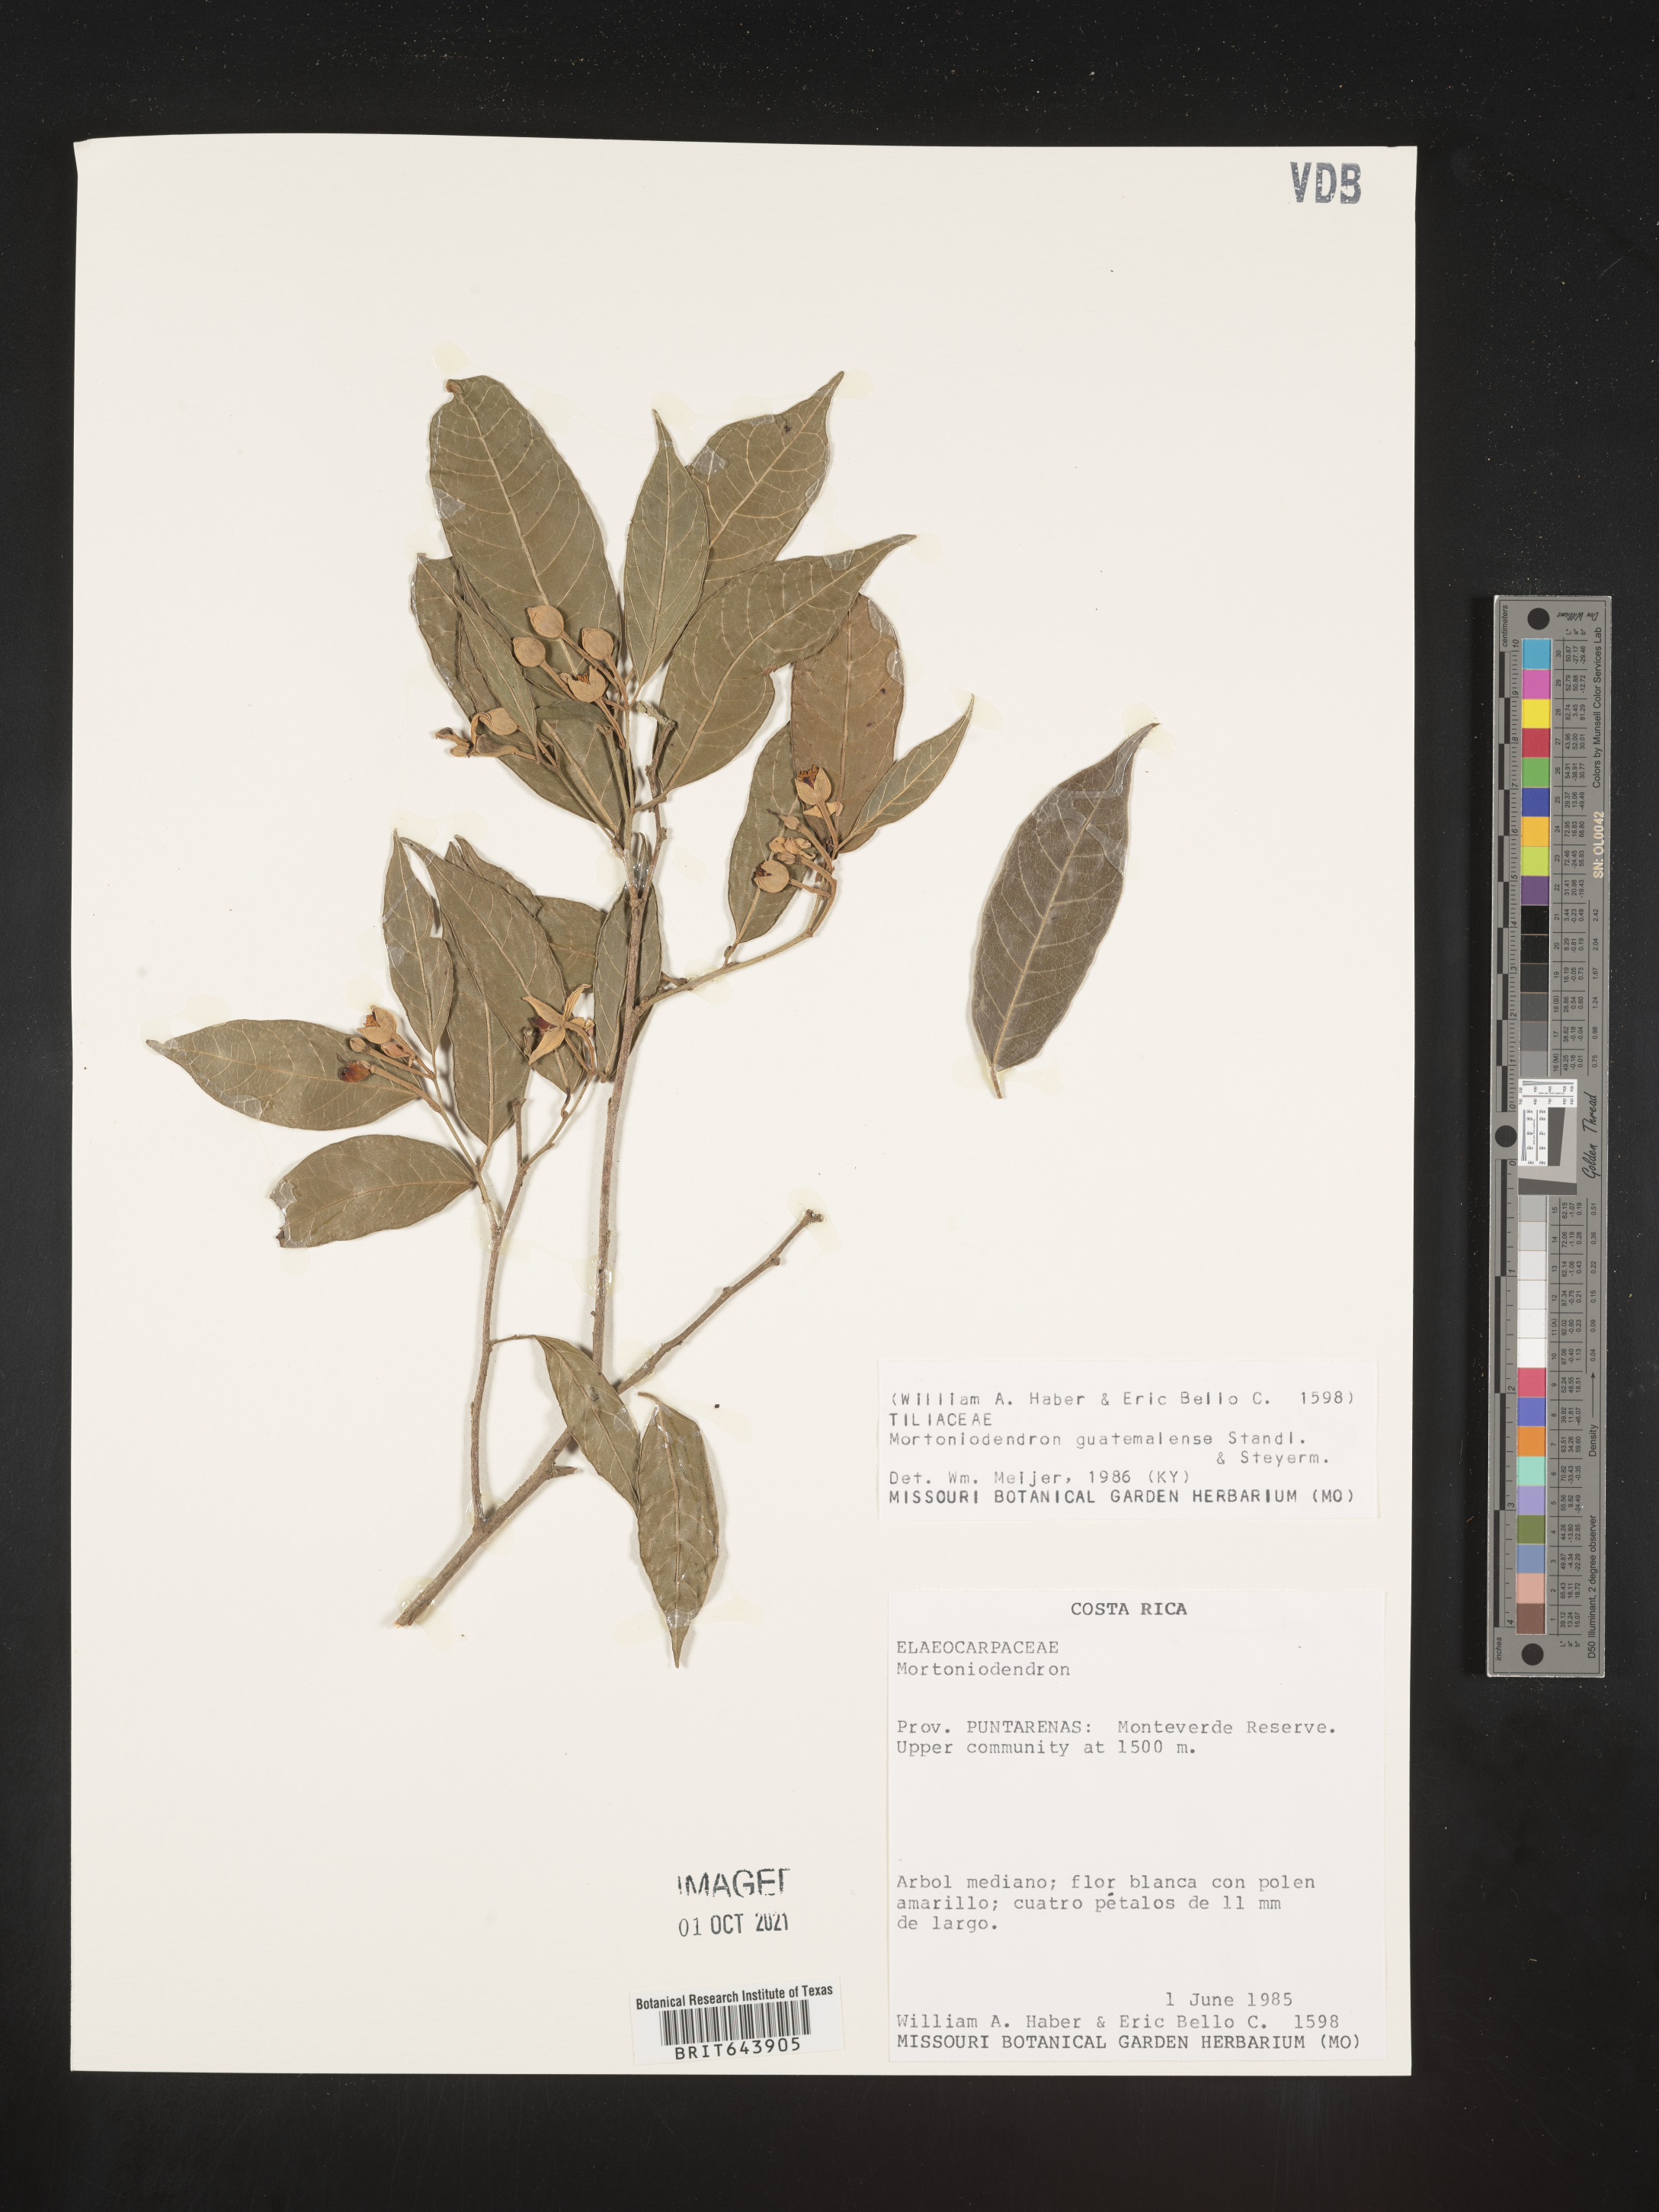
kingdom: Plantae
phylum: Tracheophyta
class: Magnoliopsida
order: Malvales
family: Malvaceae
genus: Mortoniodendron
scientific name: Mortoniodendron
